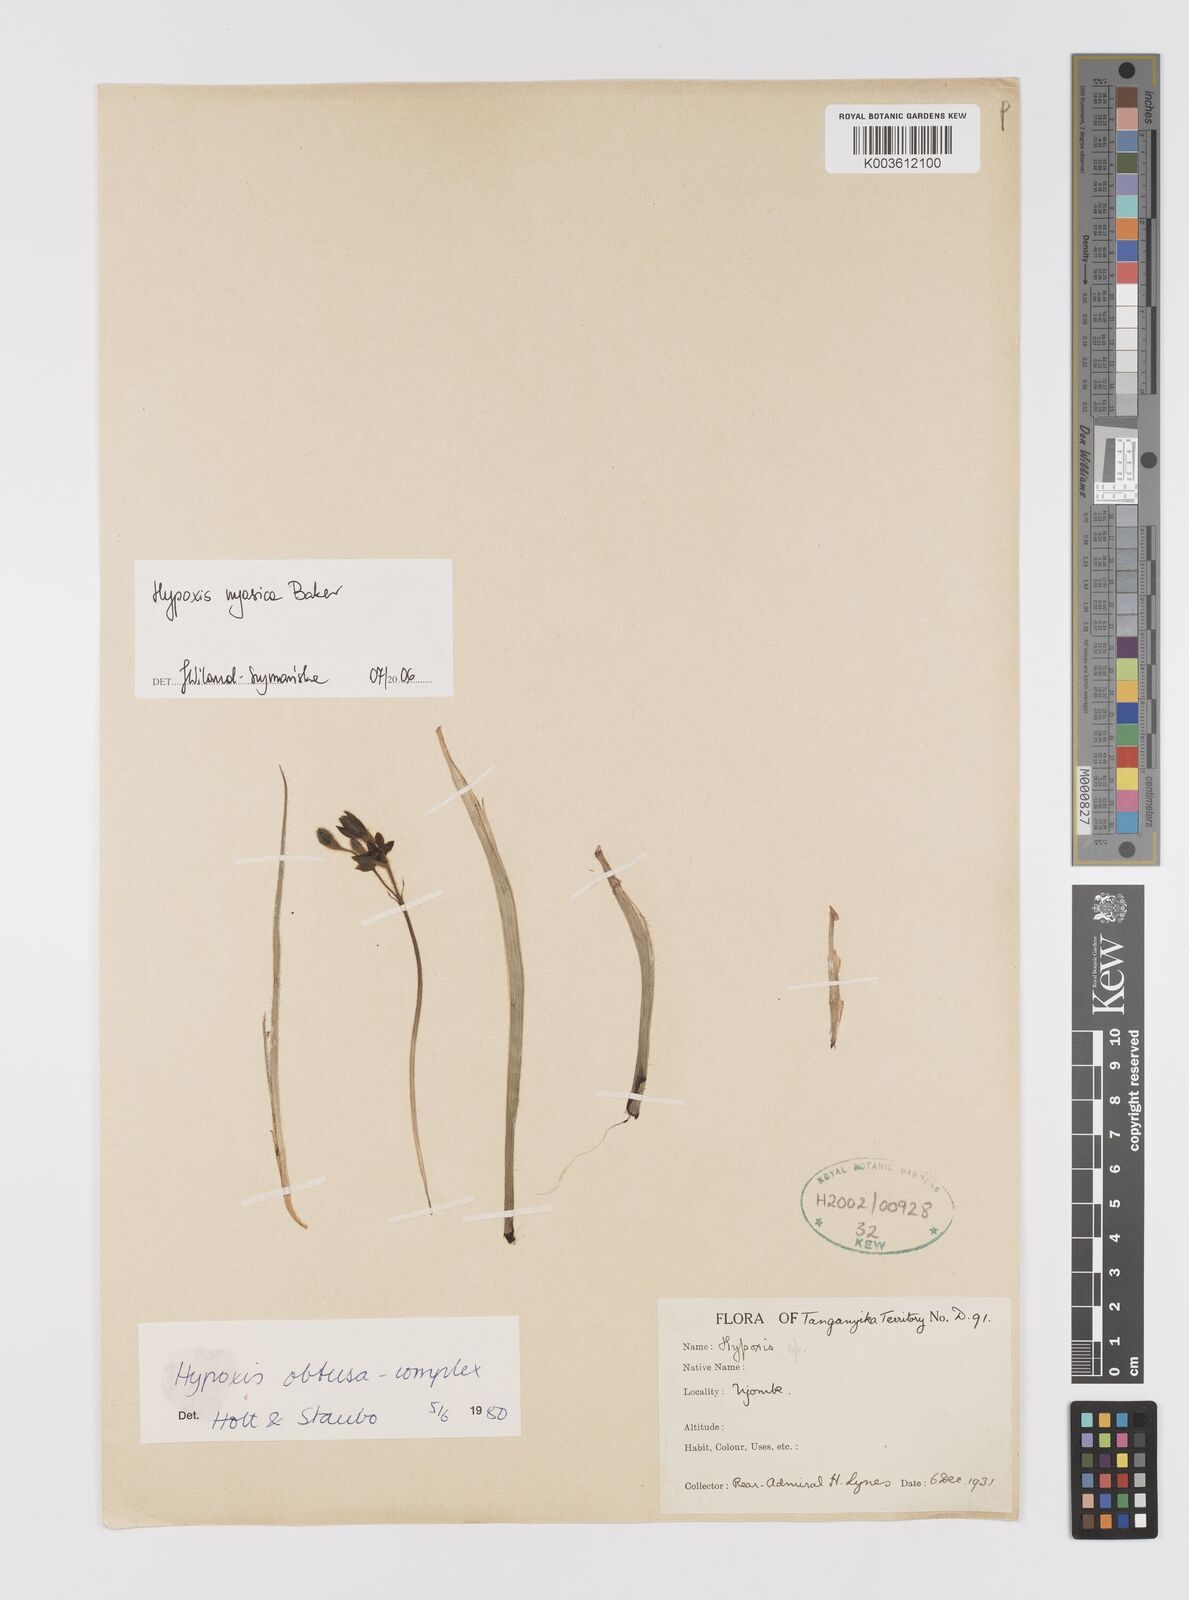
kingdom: Plantae
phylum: Tracheophyta
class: Liliopsida
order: Asparagales
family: Hypoxidaceae
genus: Hypoxis
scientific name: Hypoxis nyasica
